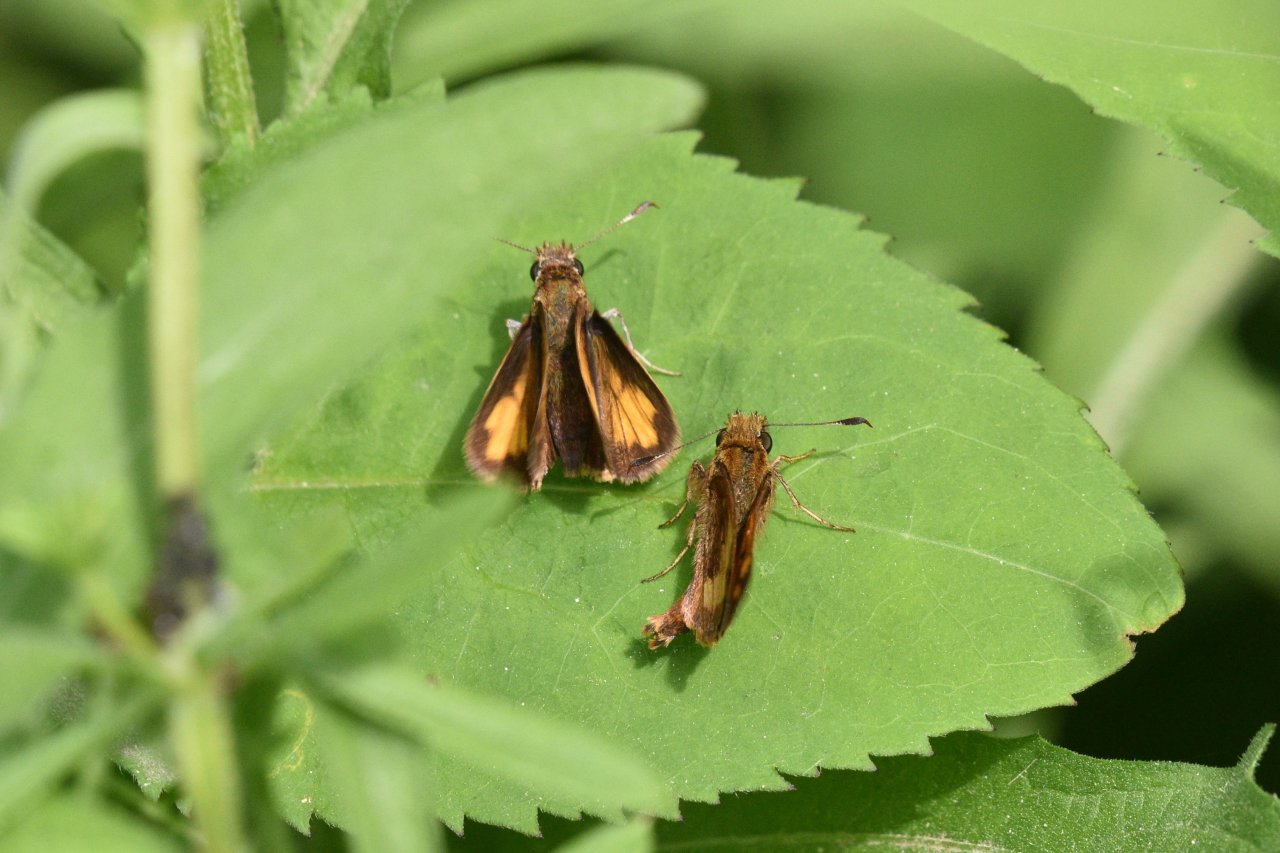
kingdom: Animalia
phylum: Arthropoda
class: Insecta
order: Lepidoptera
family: Hesperiidae
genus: Lon
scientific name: Lon hobomok
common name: Hobomok Skipper
